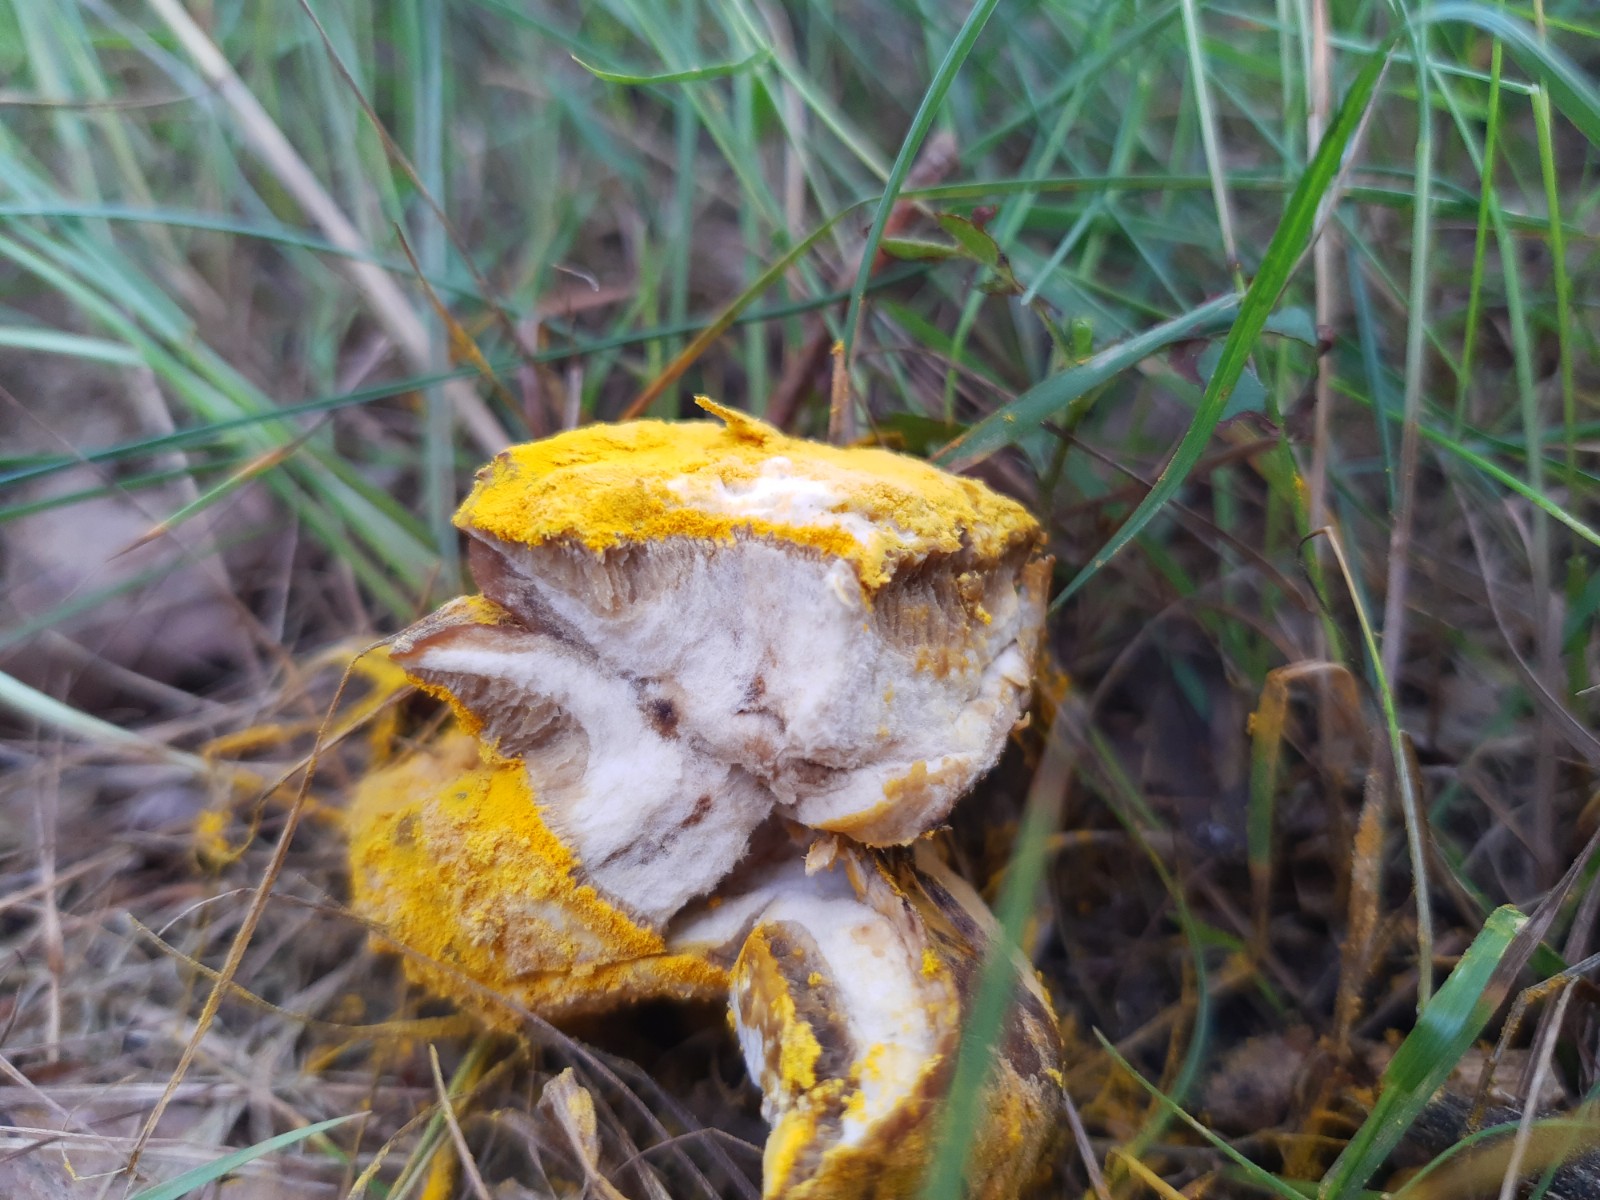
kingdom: Fungi
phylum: Ascomycota
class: Sordariomycetes
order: Hypocreales
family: Hypocreaceae
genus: Hypomyces
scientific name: Hypomyces microspermus
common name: dværgrørhat-snylteskorpe
